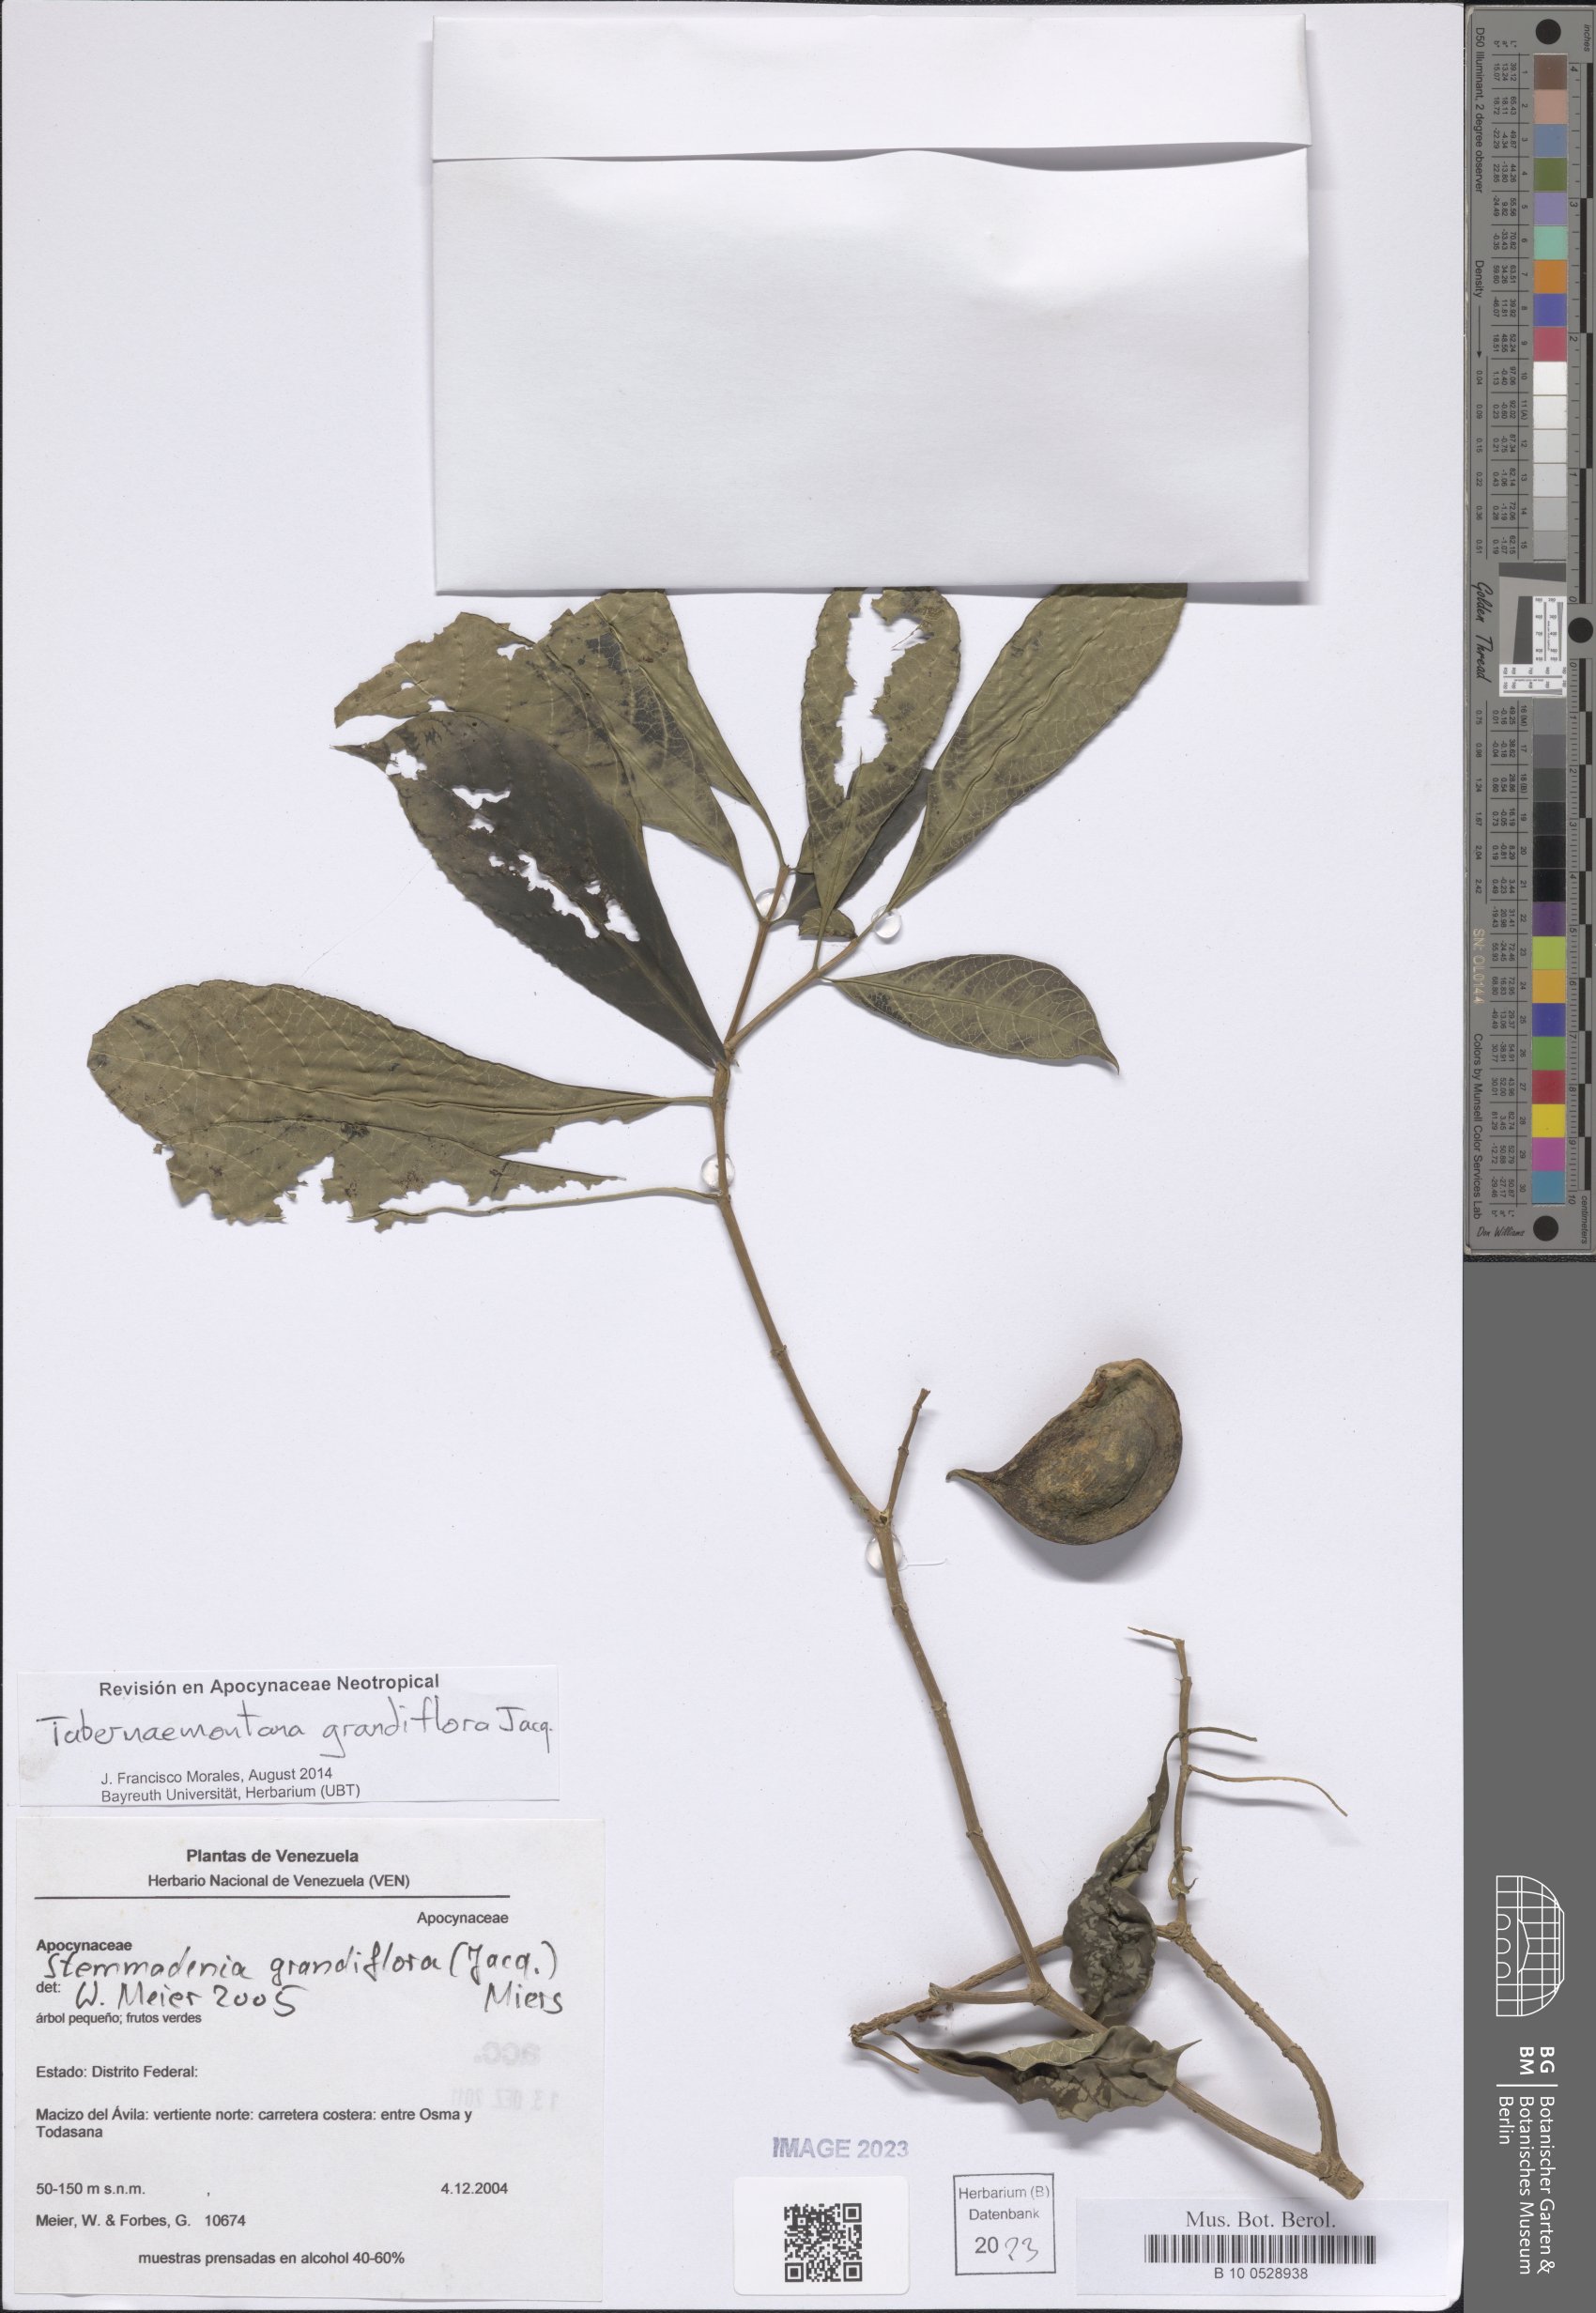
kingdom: Plantae
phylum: Tracheophyta
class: Magnoliopsida
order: Gentianales
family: Apocynaceae
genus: Tabernaemontana
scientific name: Tabernaemontana grandiflora
